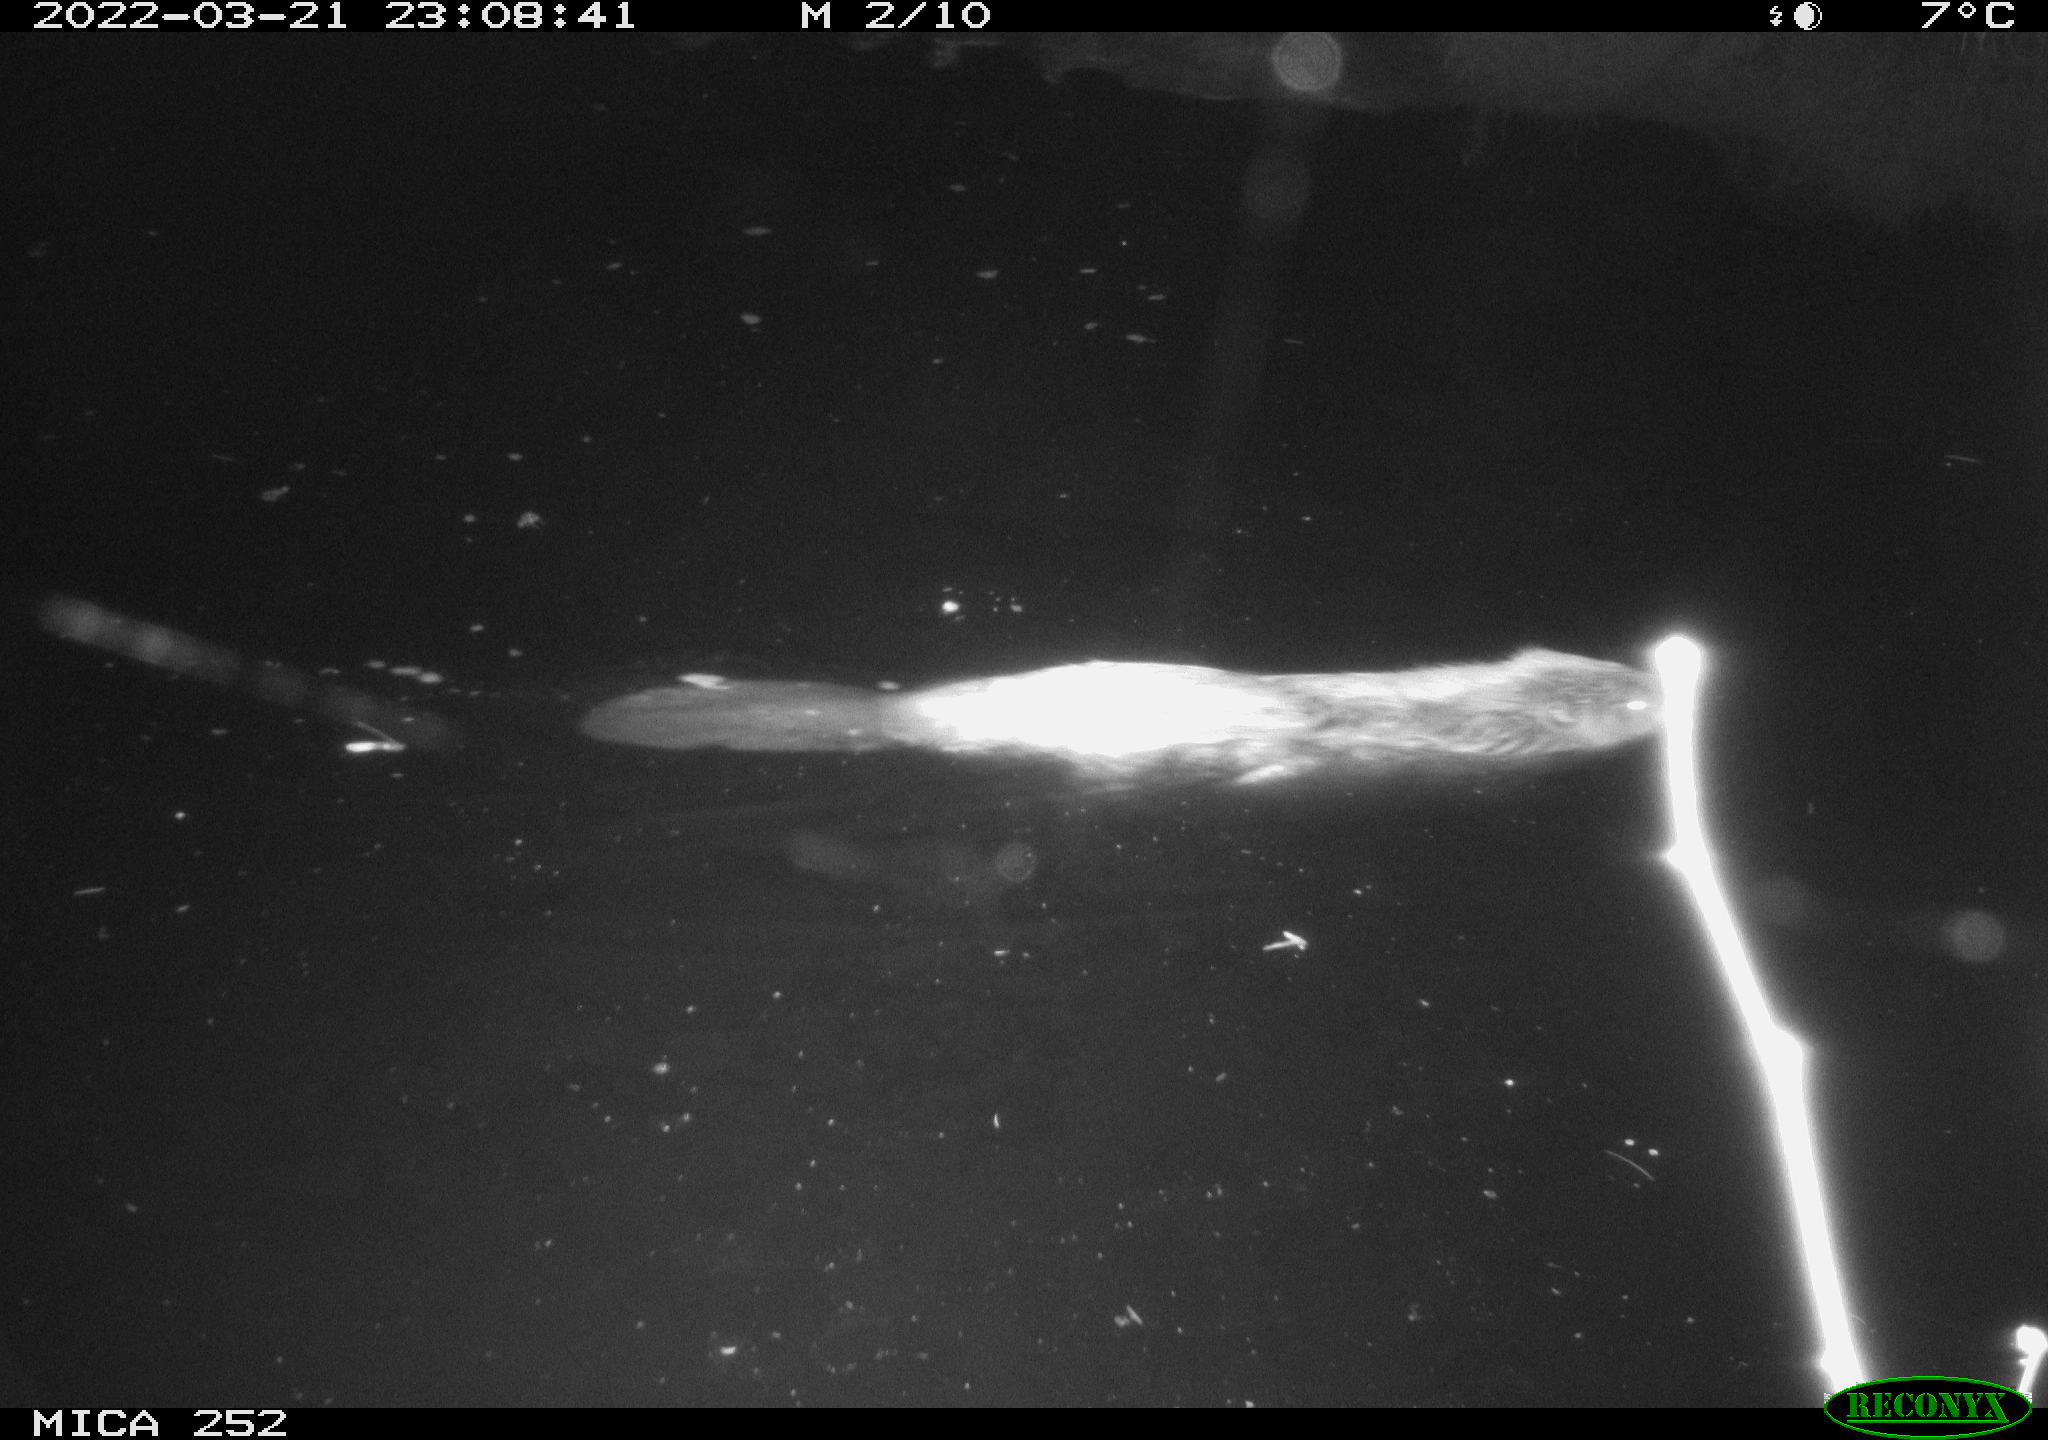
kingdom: Animalia
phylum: Chordata
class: Mammalia
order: Rodentia
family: Castoridae
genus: Castor
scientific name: Castor fiber
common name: Eurasian beaver
